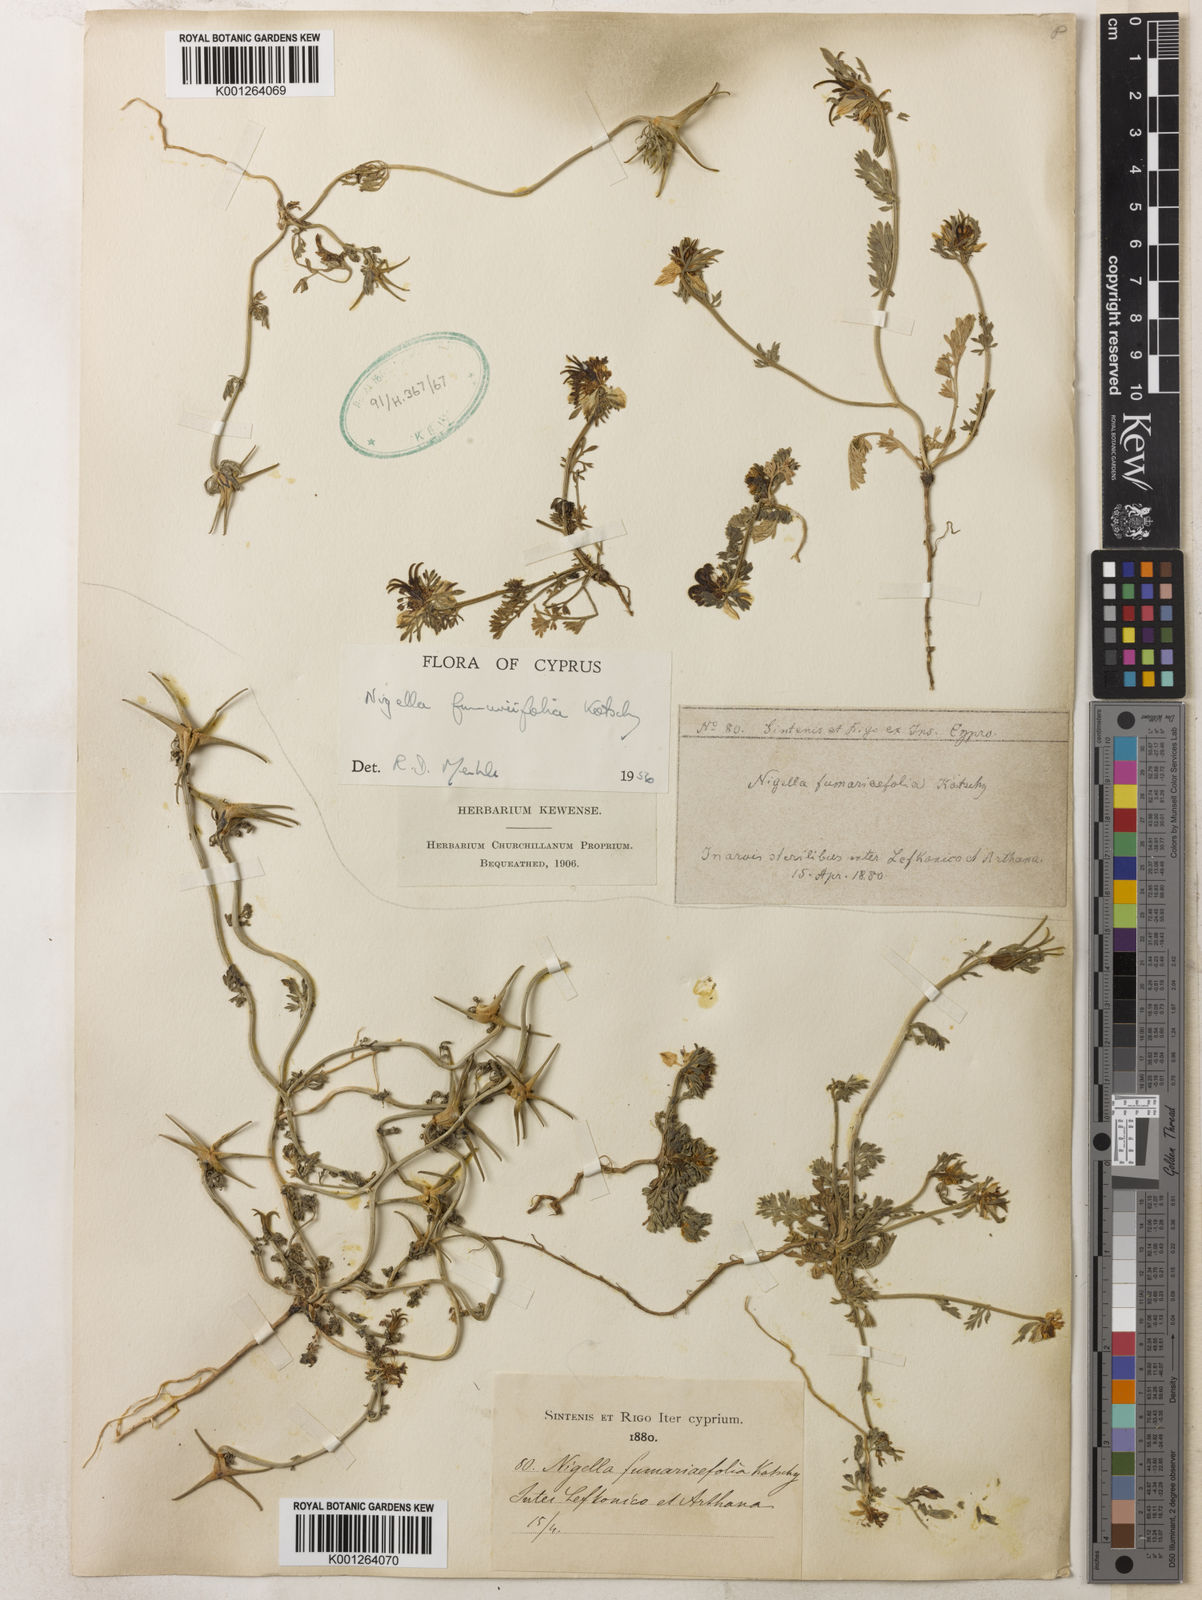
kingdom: Plantae
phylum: Tracheophyta
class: Magnoliopsida
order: Ranunculales
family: Ranunculaceae
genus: Nigella
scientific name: Nigella
